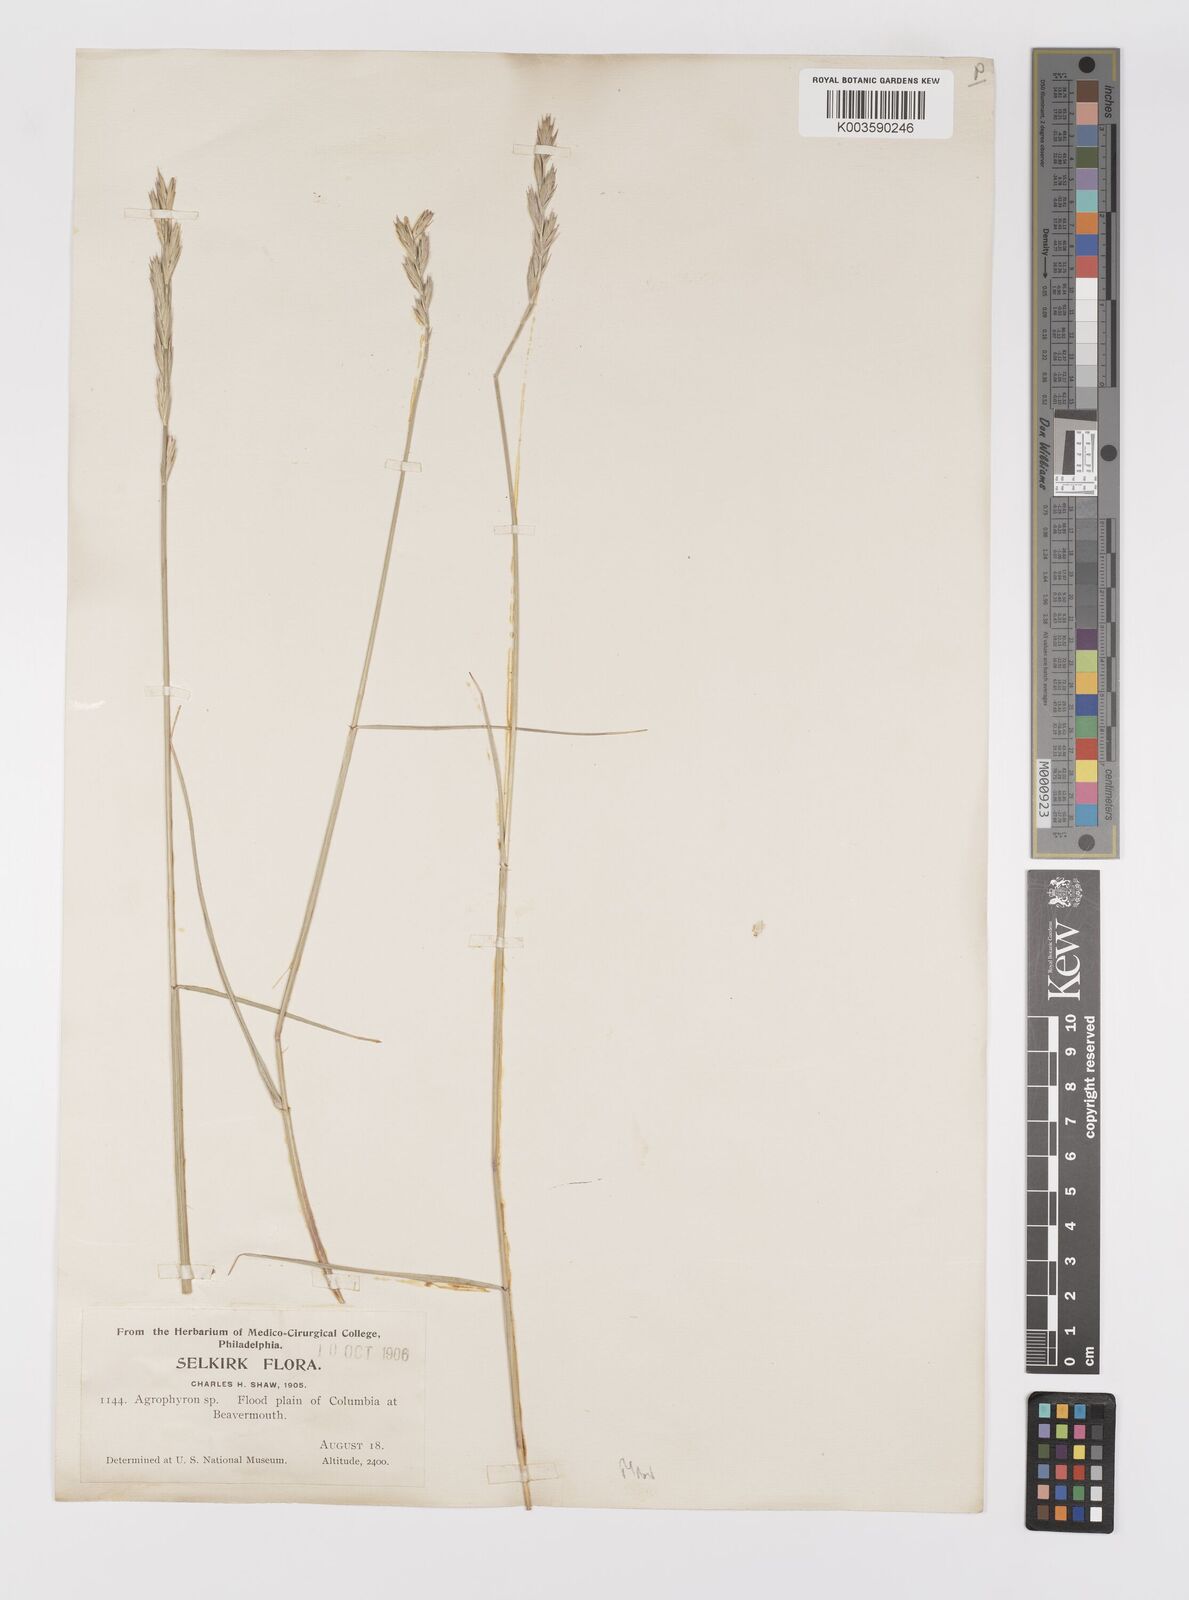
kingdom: Plantae
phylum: Tracheophyta
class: Liliopsida
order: Poales
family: Poaceae
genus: Elymus
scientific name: Elymus
